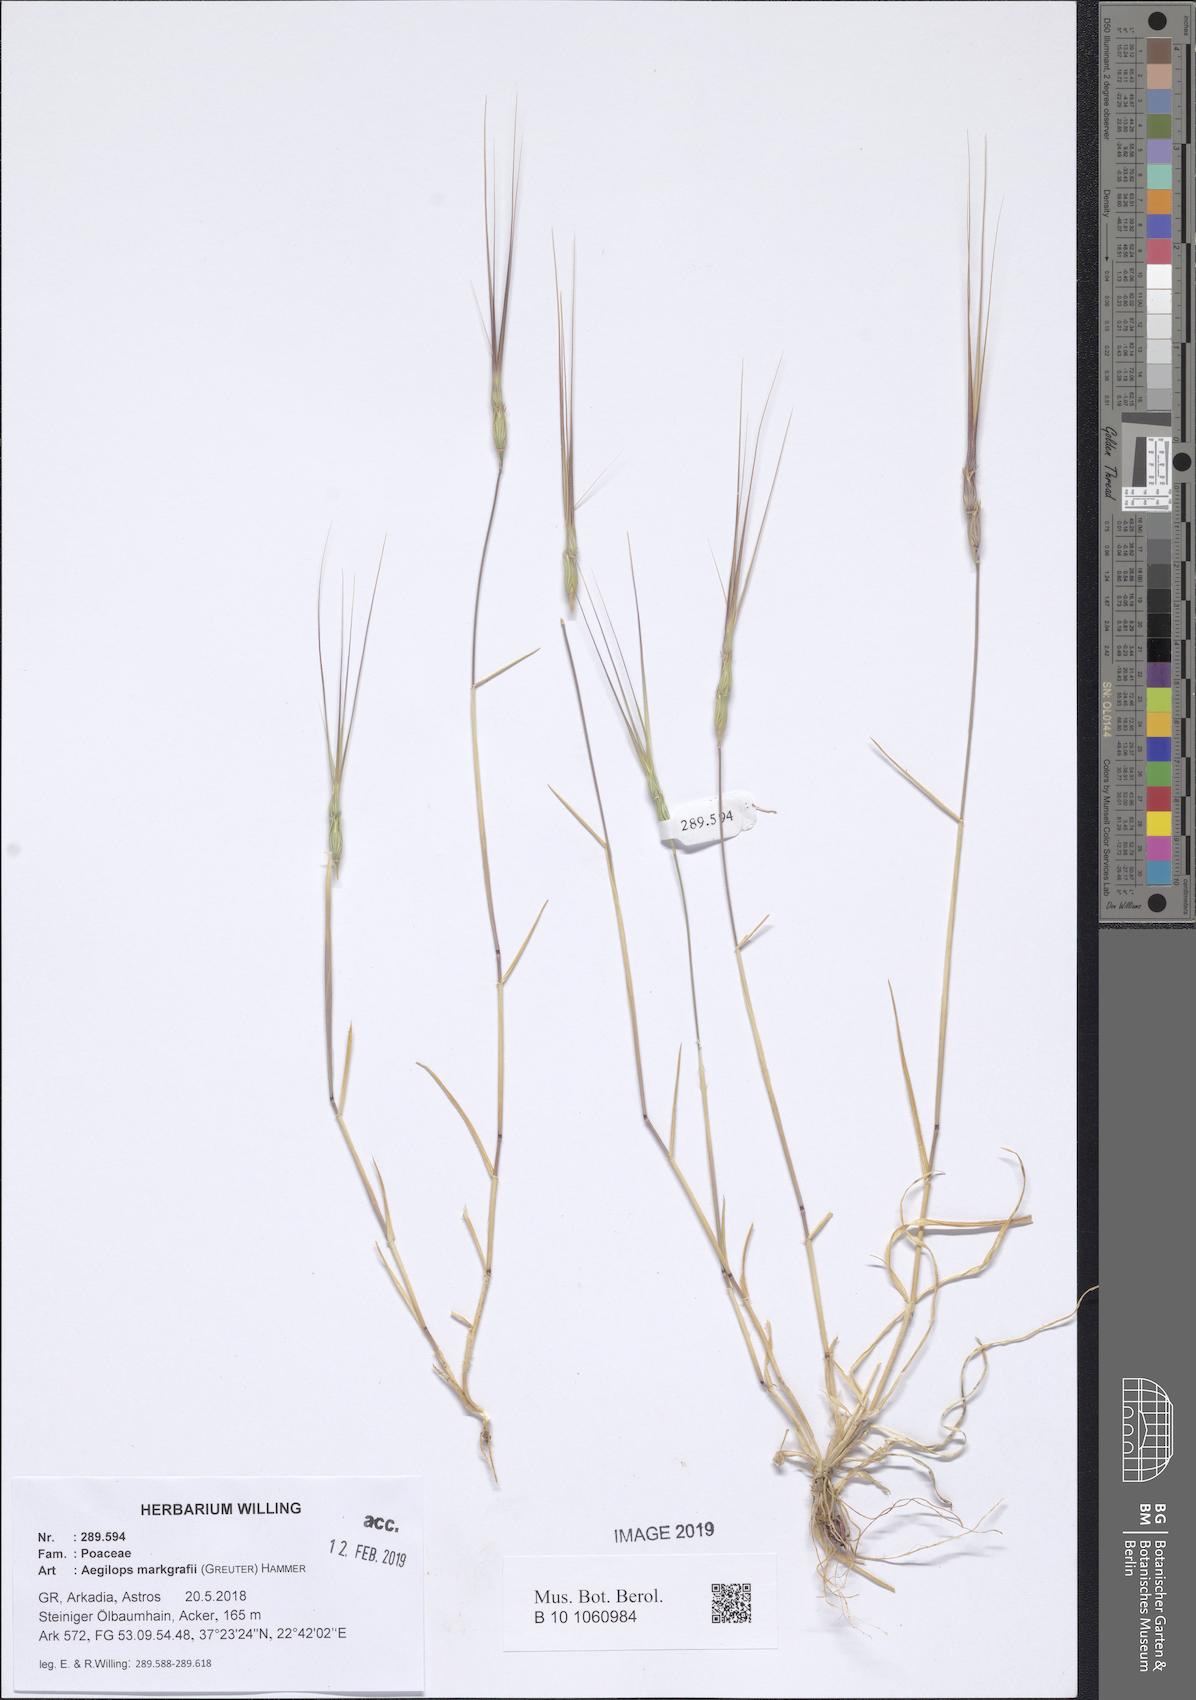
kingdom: Plantae
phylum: Tracheophyta
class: Liliopsida
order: Poales
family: Poaceae
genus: Aegilops
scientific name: Aegilops caudata
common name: Cretan hard-grass
